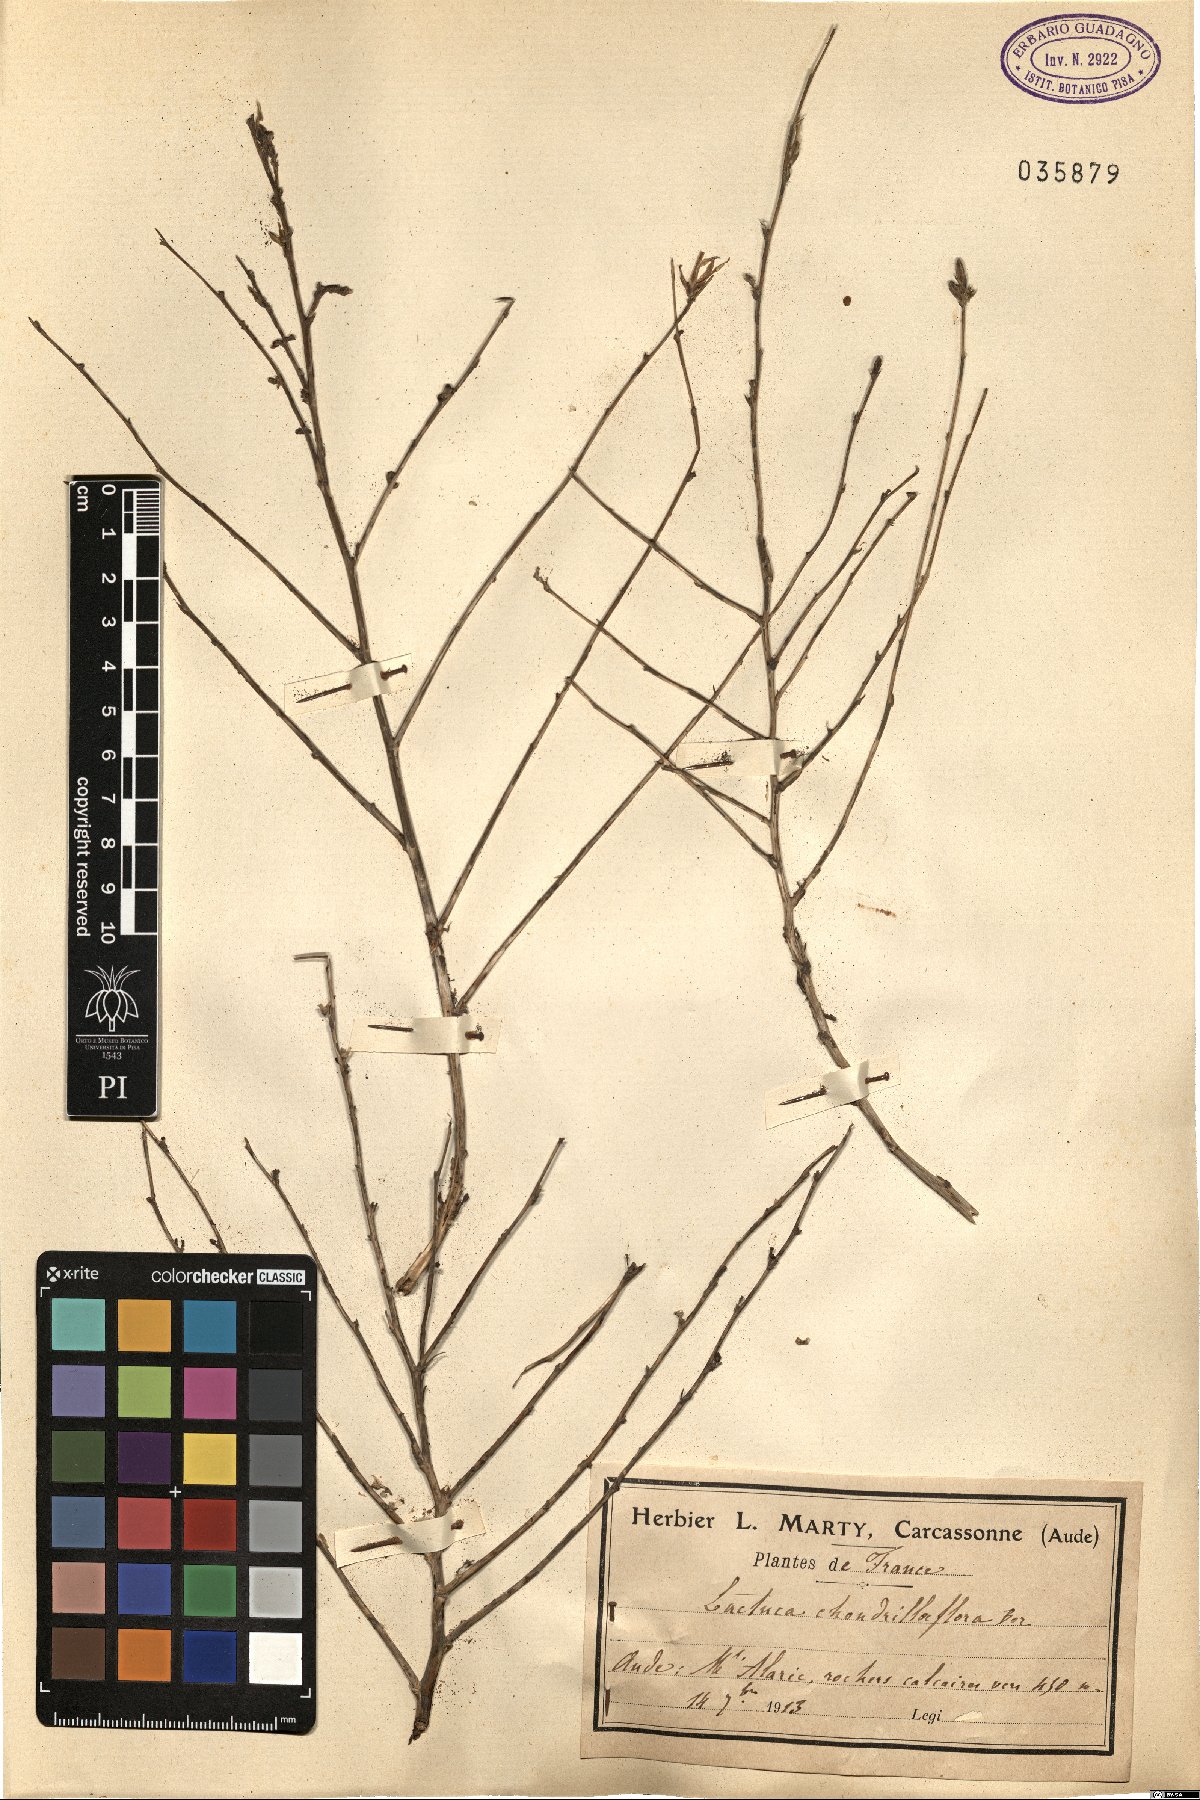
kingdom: Plantae
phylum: Tracheophyta
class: Magnoliopsida
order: Asterales
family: Asteraceae
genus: Lactuca
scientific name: Lactuca viminea
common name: Pliant lettuce
